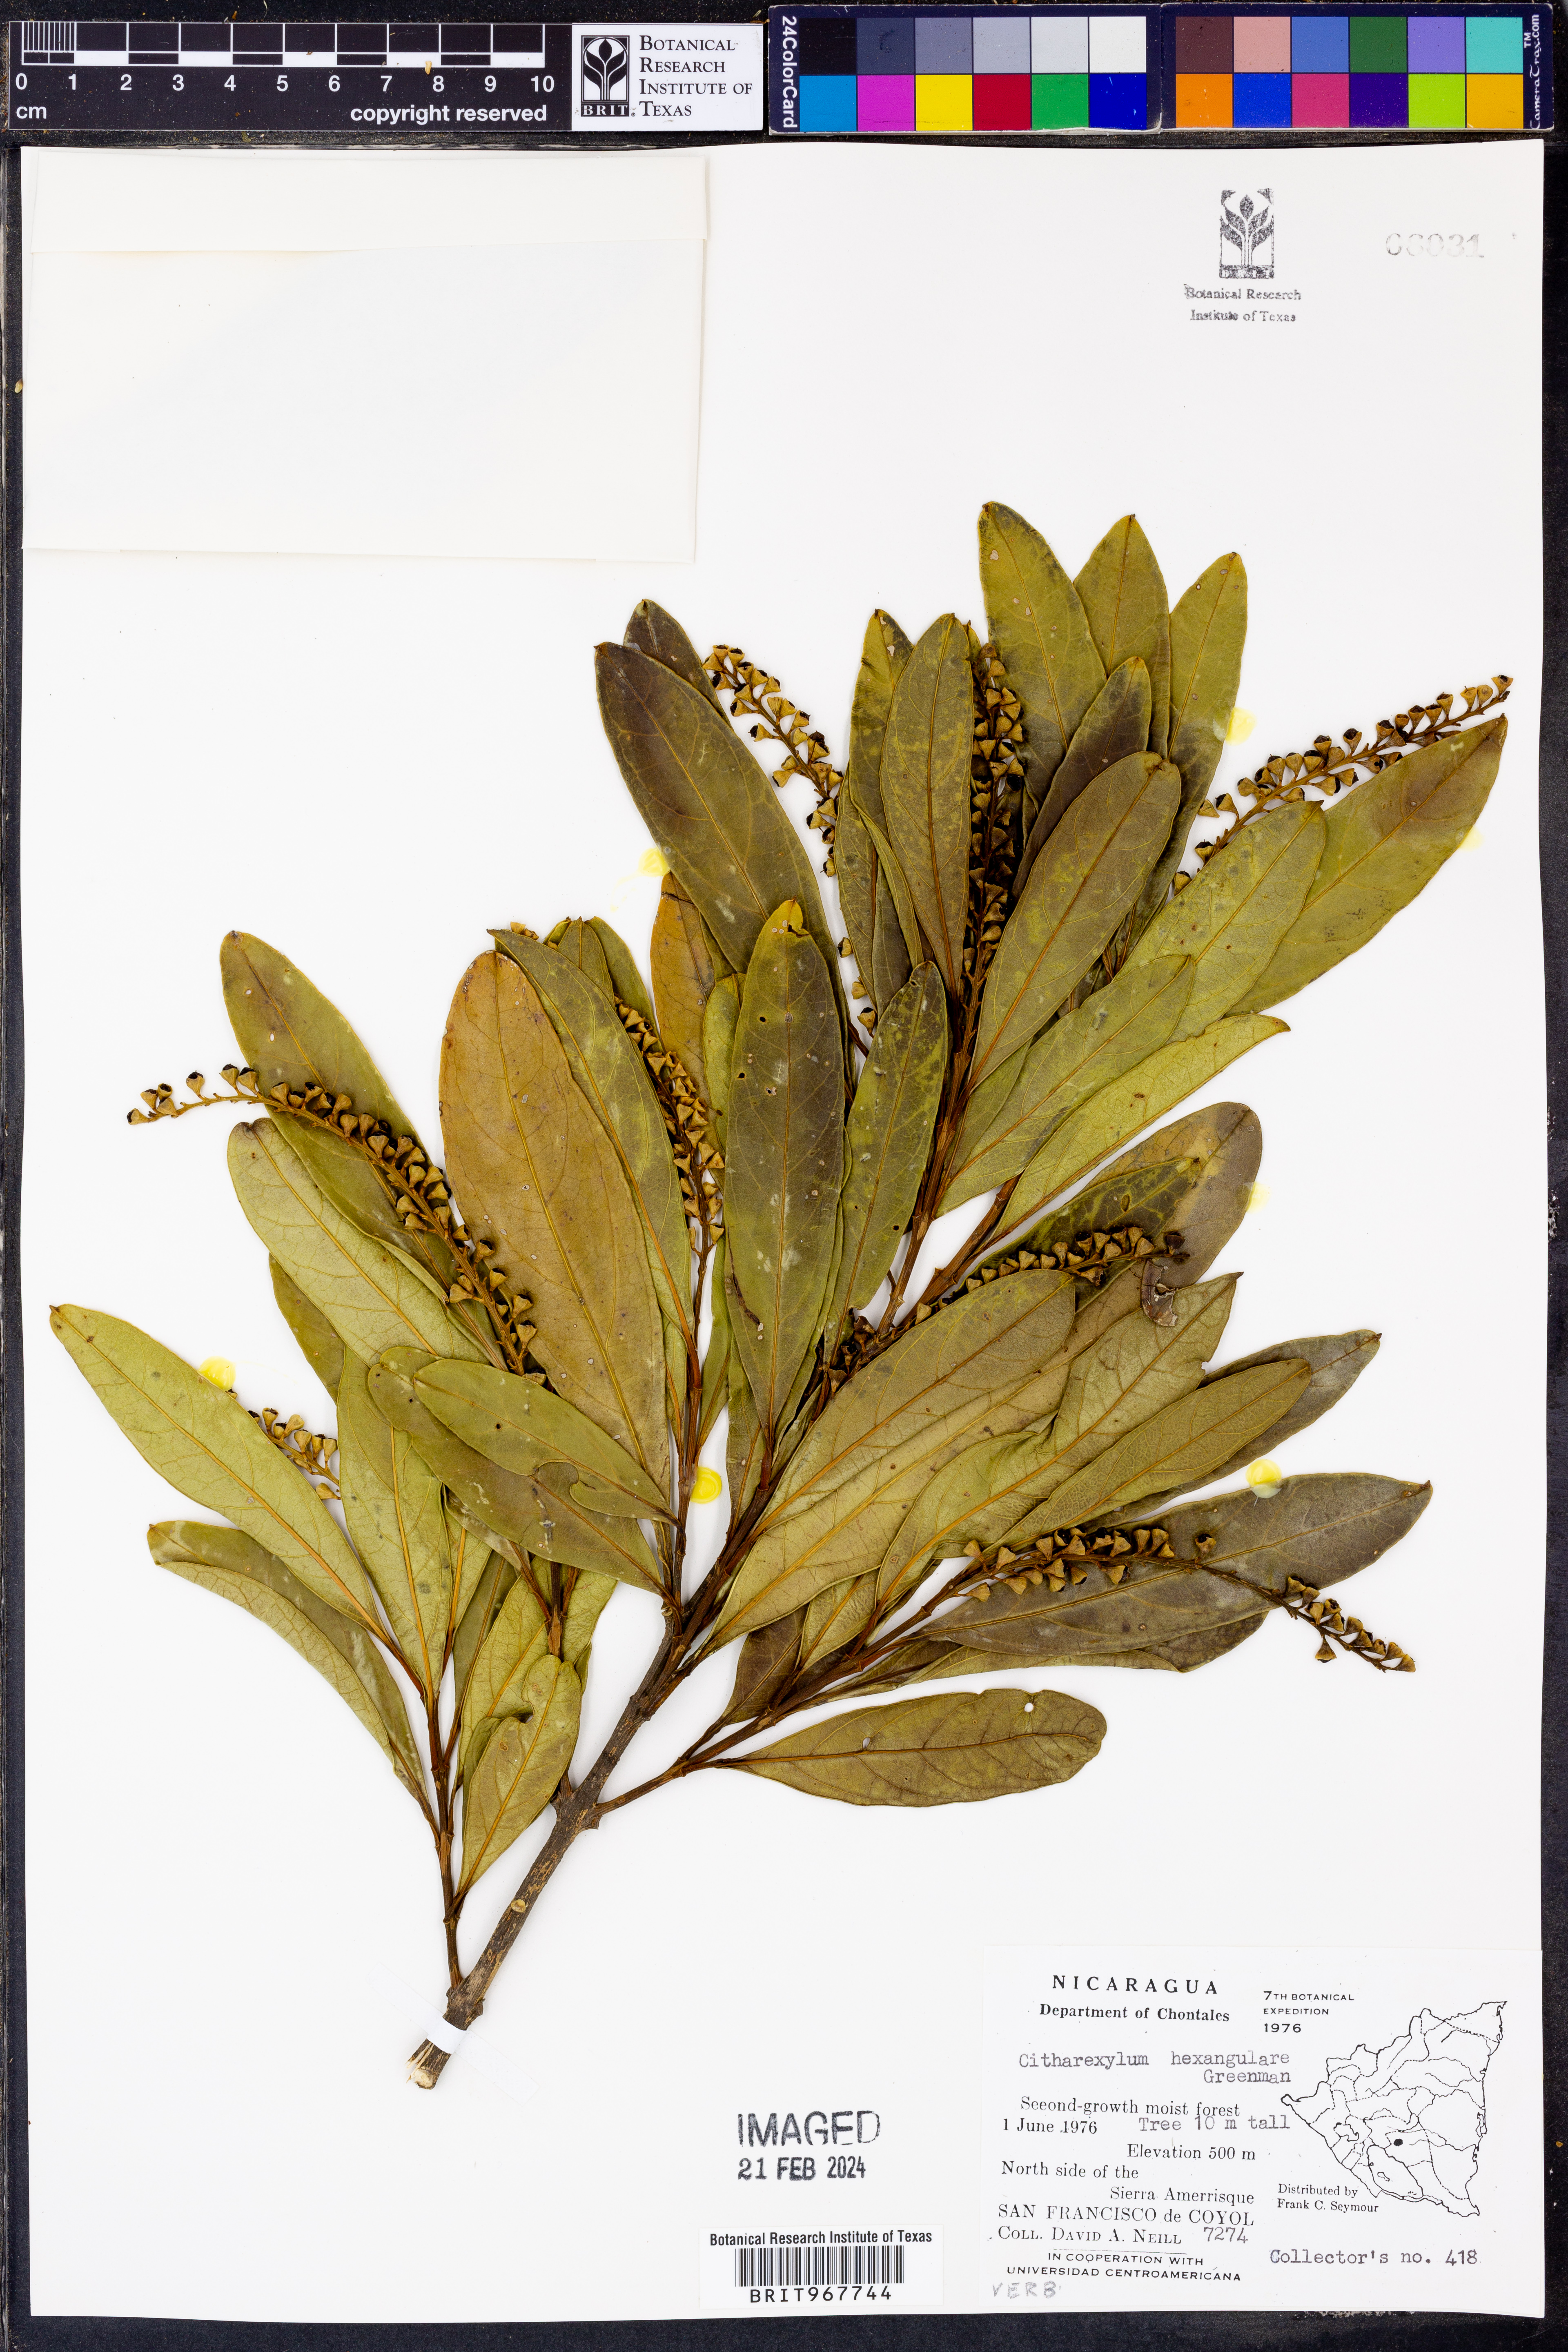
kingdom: Plantae
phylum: Tracheophyta
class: Magnoliopsida
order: Lamiales
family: Verbenaceae
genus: Citharexylum
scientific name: Citharexylum
